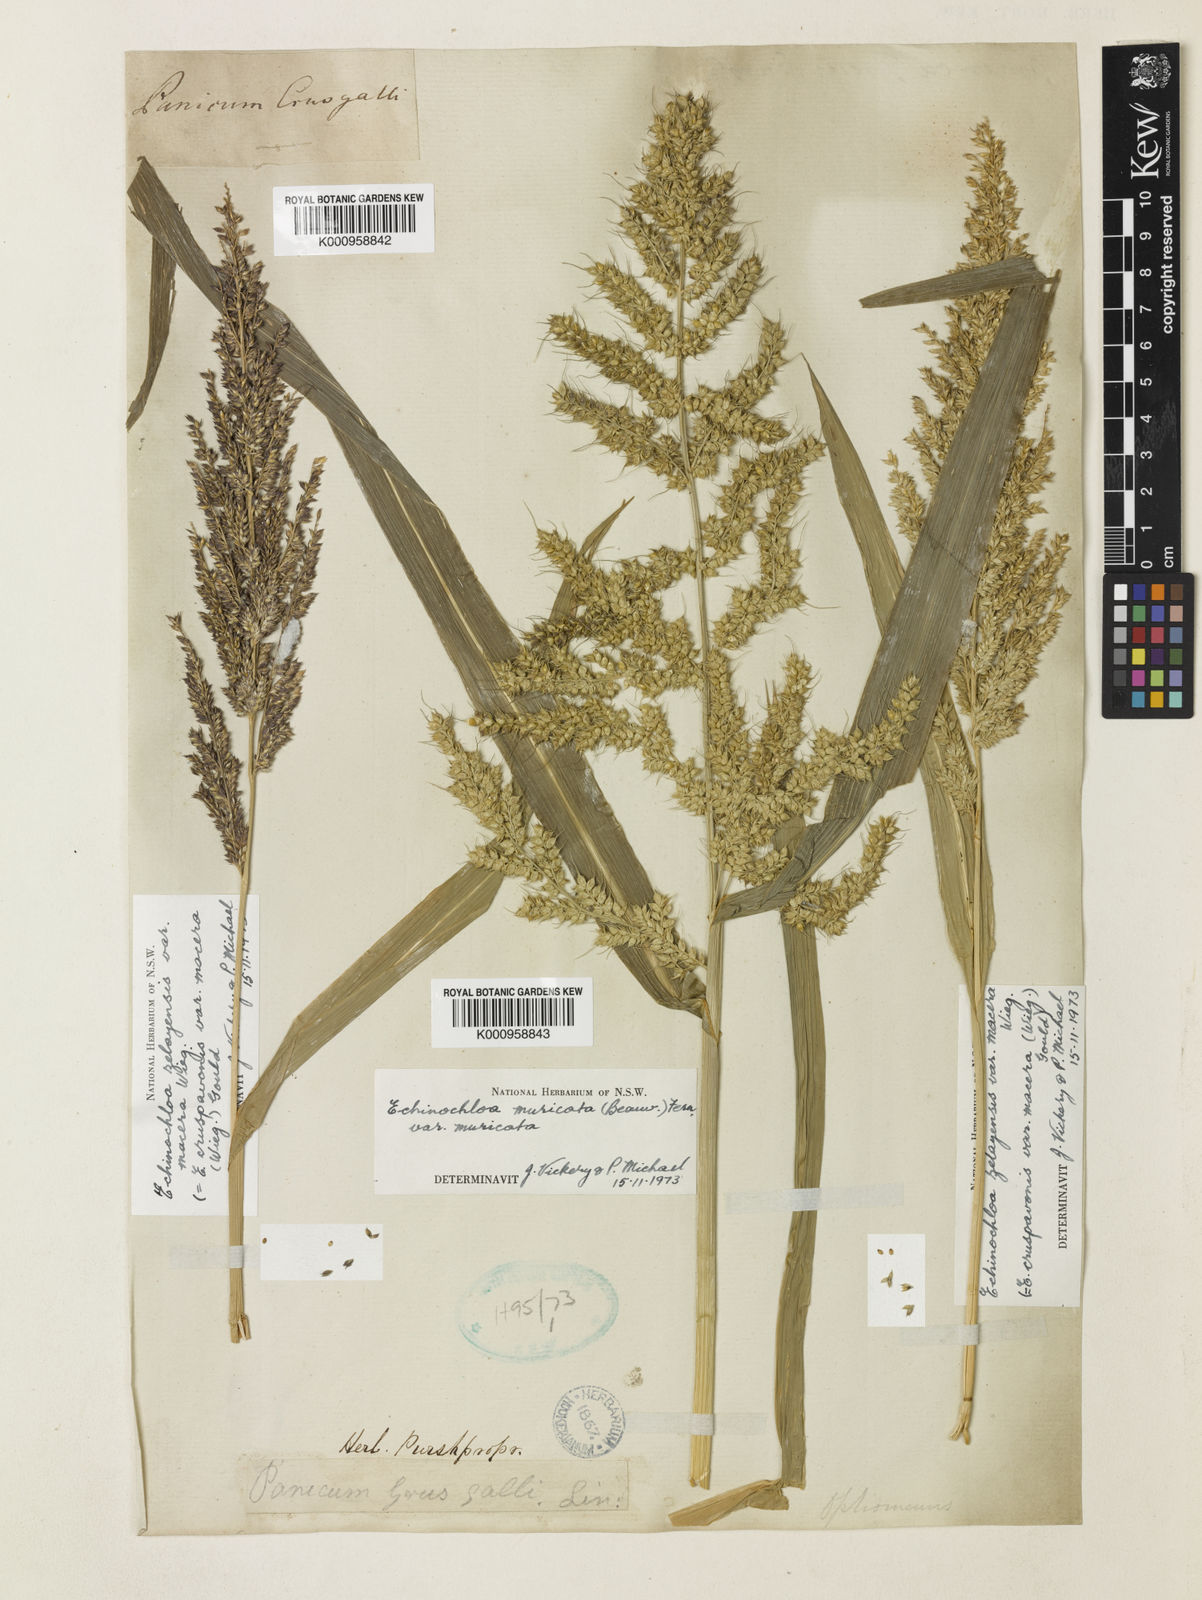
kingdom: Plantae
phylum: Tracheophyta
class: Liliopsida
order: Poales
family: Poaceae
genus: Echinochloa
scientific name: Echinochloa muricata
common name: American barnyard grass
